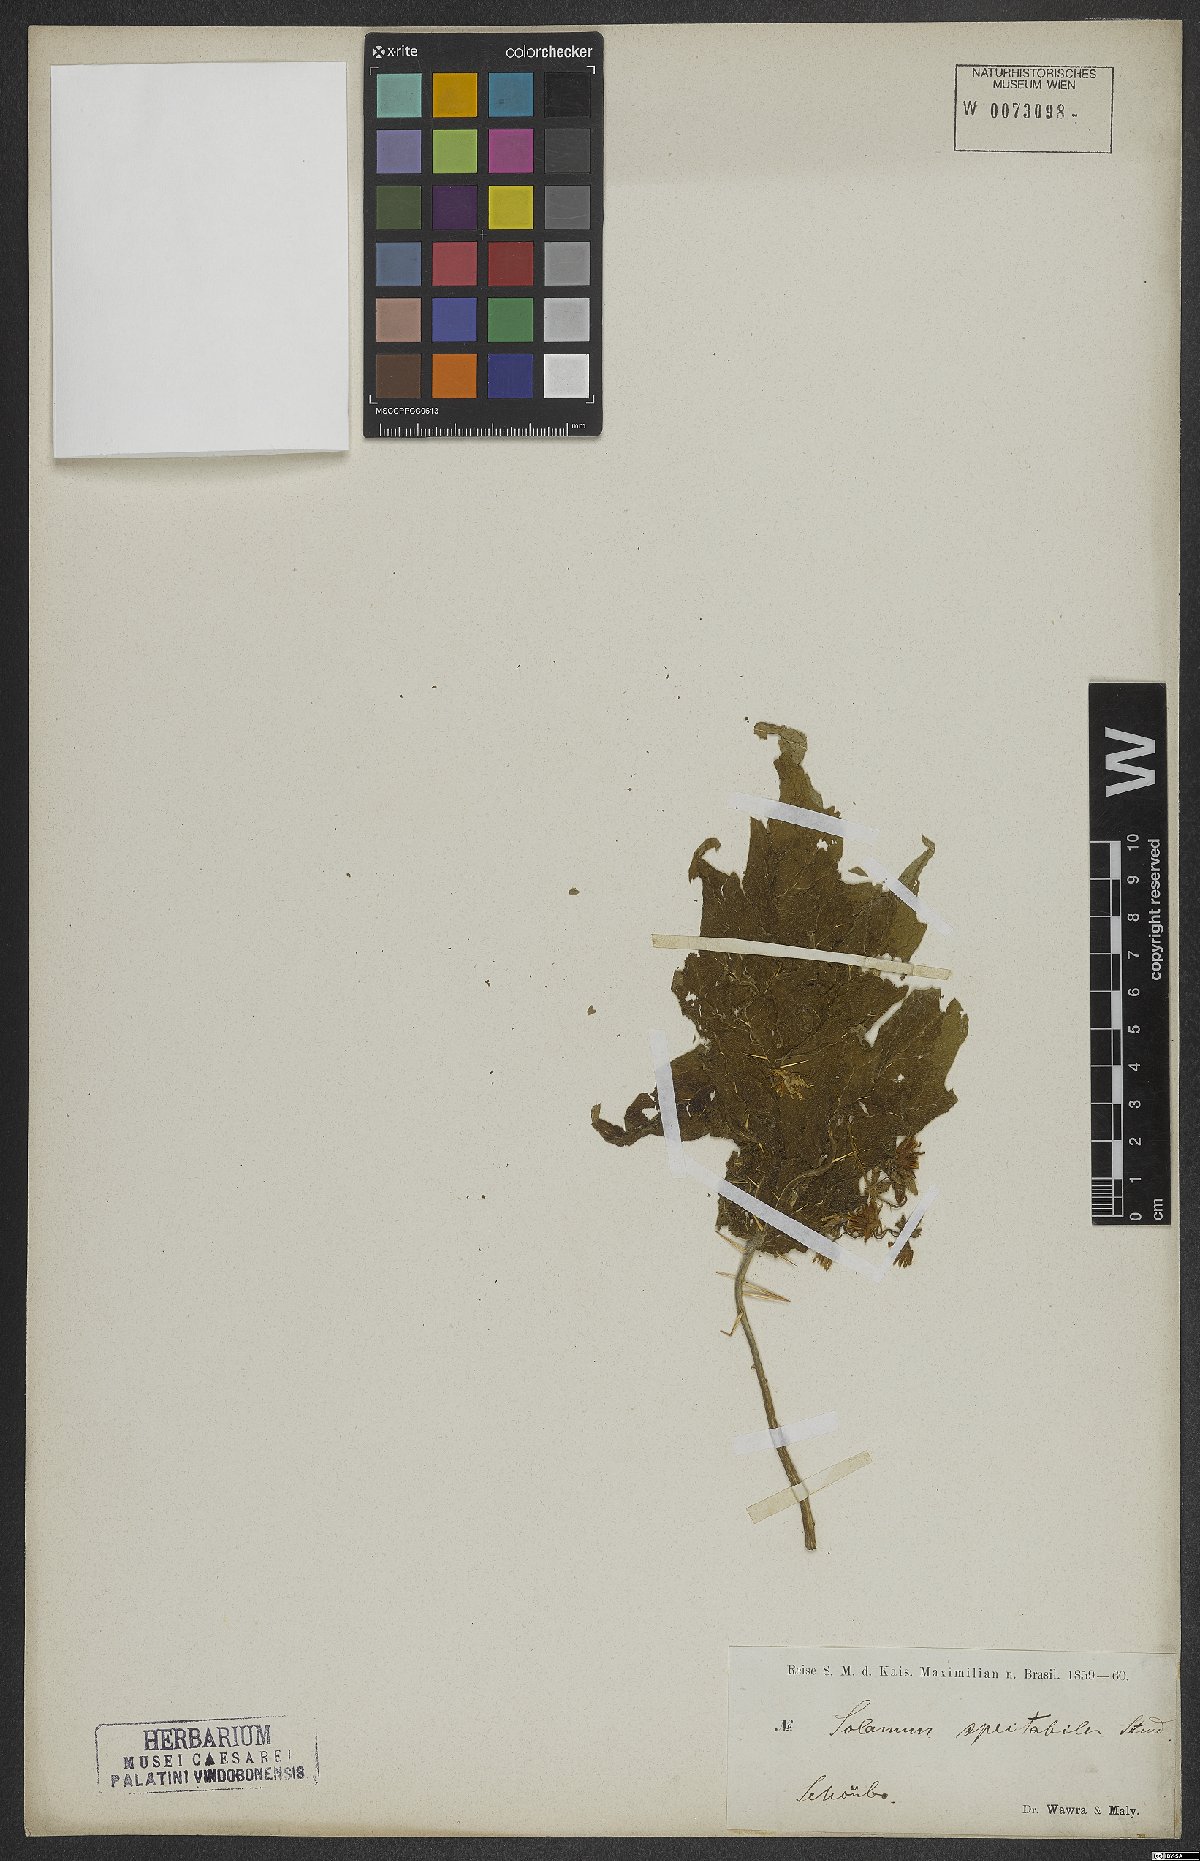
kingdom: Plantae
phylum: Tracheophyta
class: Magnoliopsida
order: Solanales
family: Solanaceae
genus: Solanum
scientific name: Solanum subumbellatum
